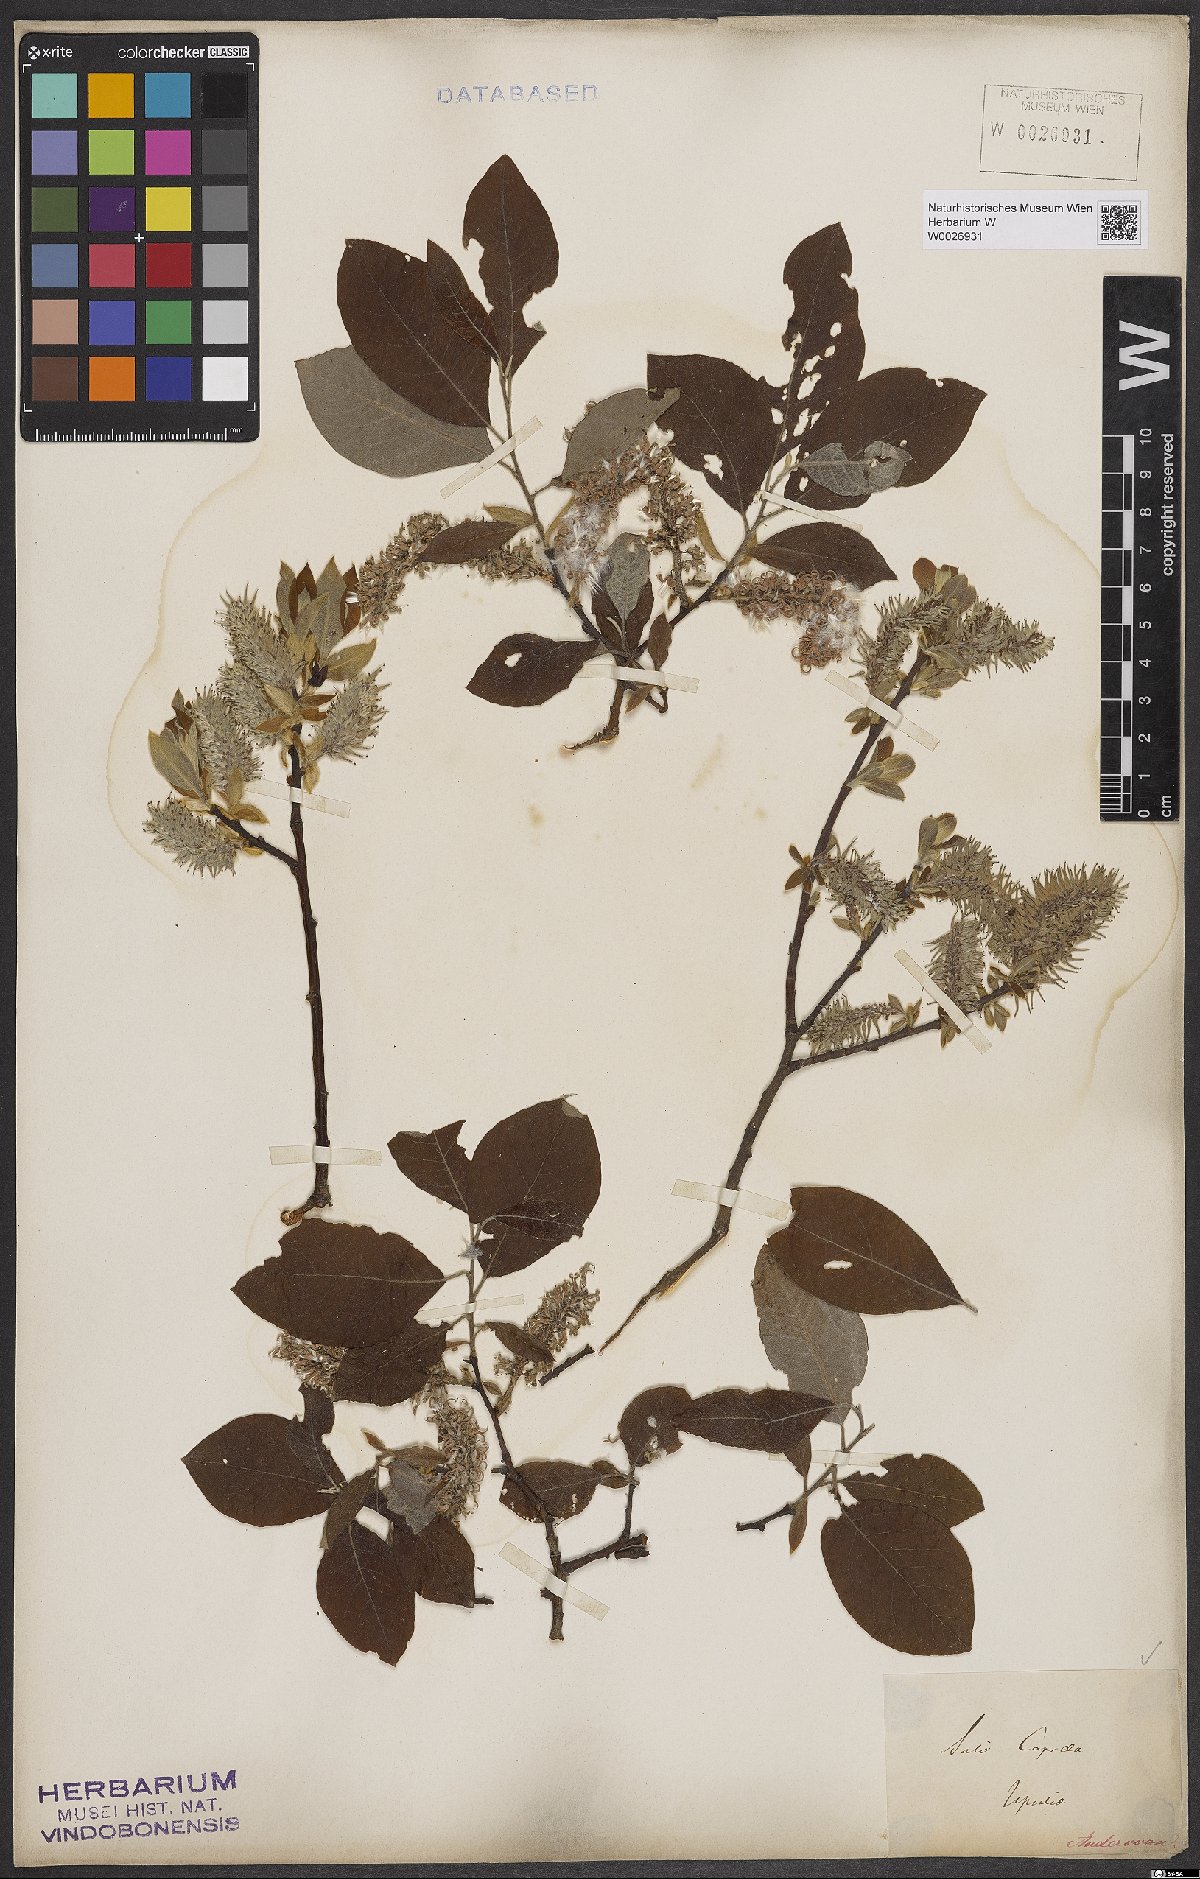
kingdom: Plantae
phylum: Tracheophyta
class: Magnoliopsida
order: Malpighiales
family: Salicaceae
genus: Salix
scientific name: Salix caprea
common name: Goat willow
